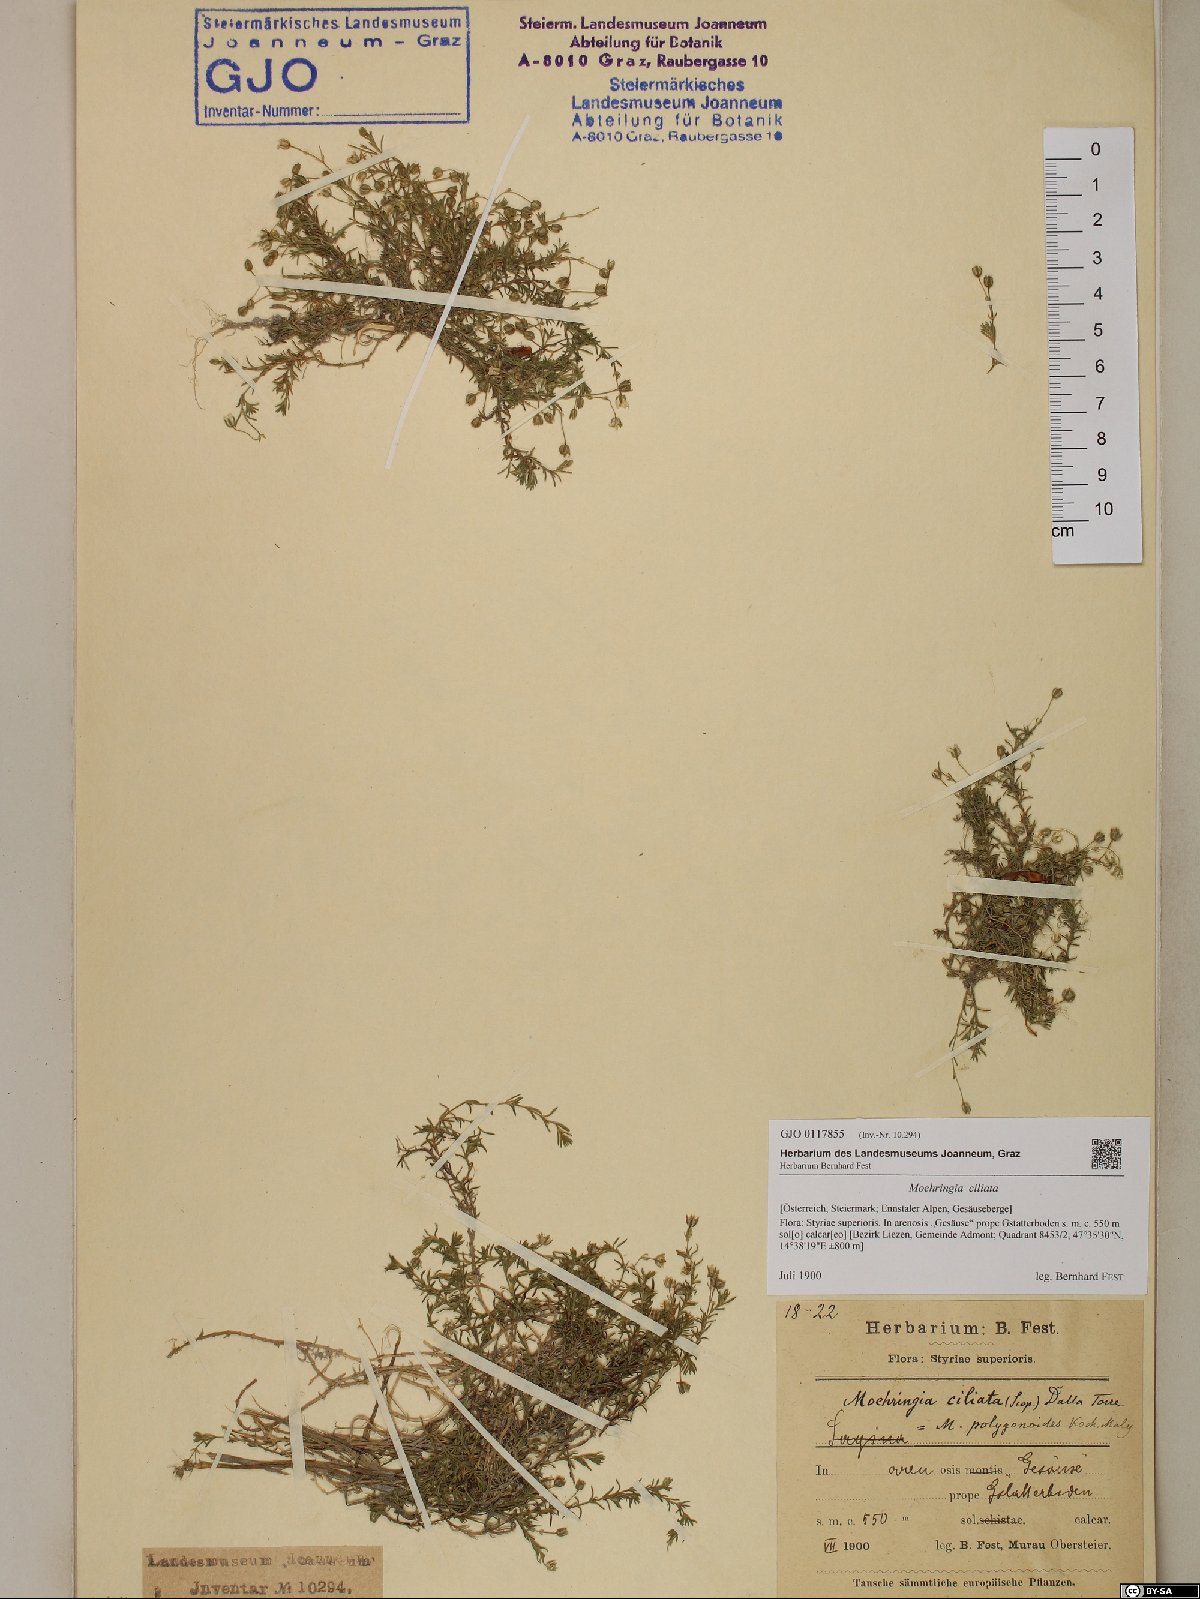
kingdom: Plantae
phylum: Tracheophyta
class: Magnoliopsida
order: Caryophyllales
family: Caryophyllaceae
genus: Moehringia
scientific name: Moehringia ciliata
